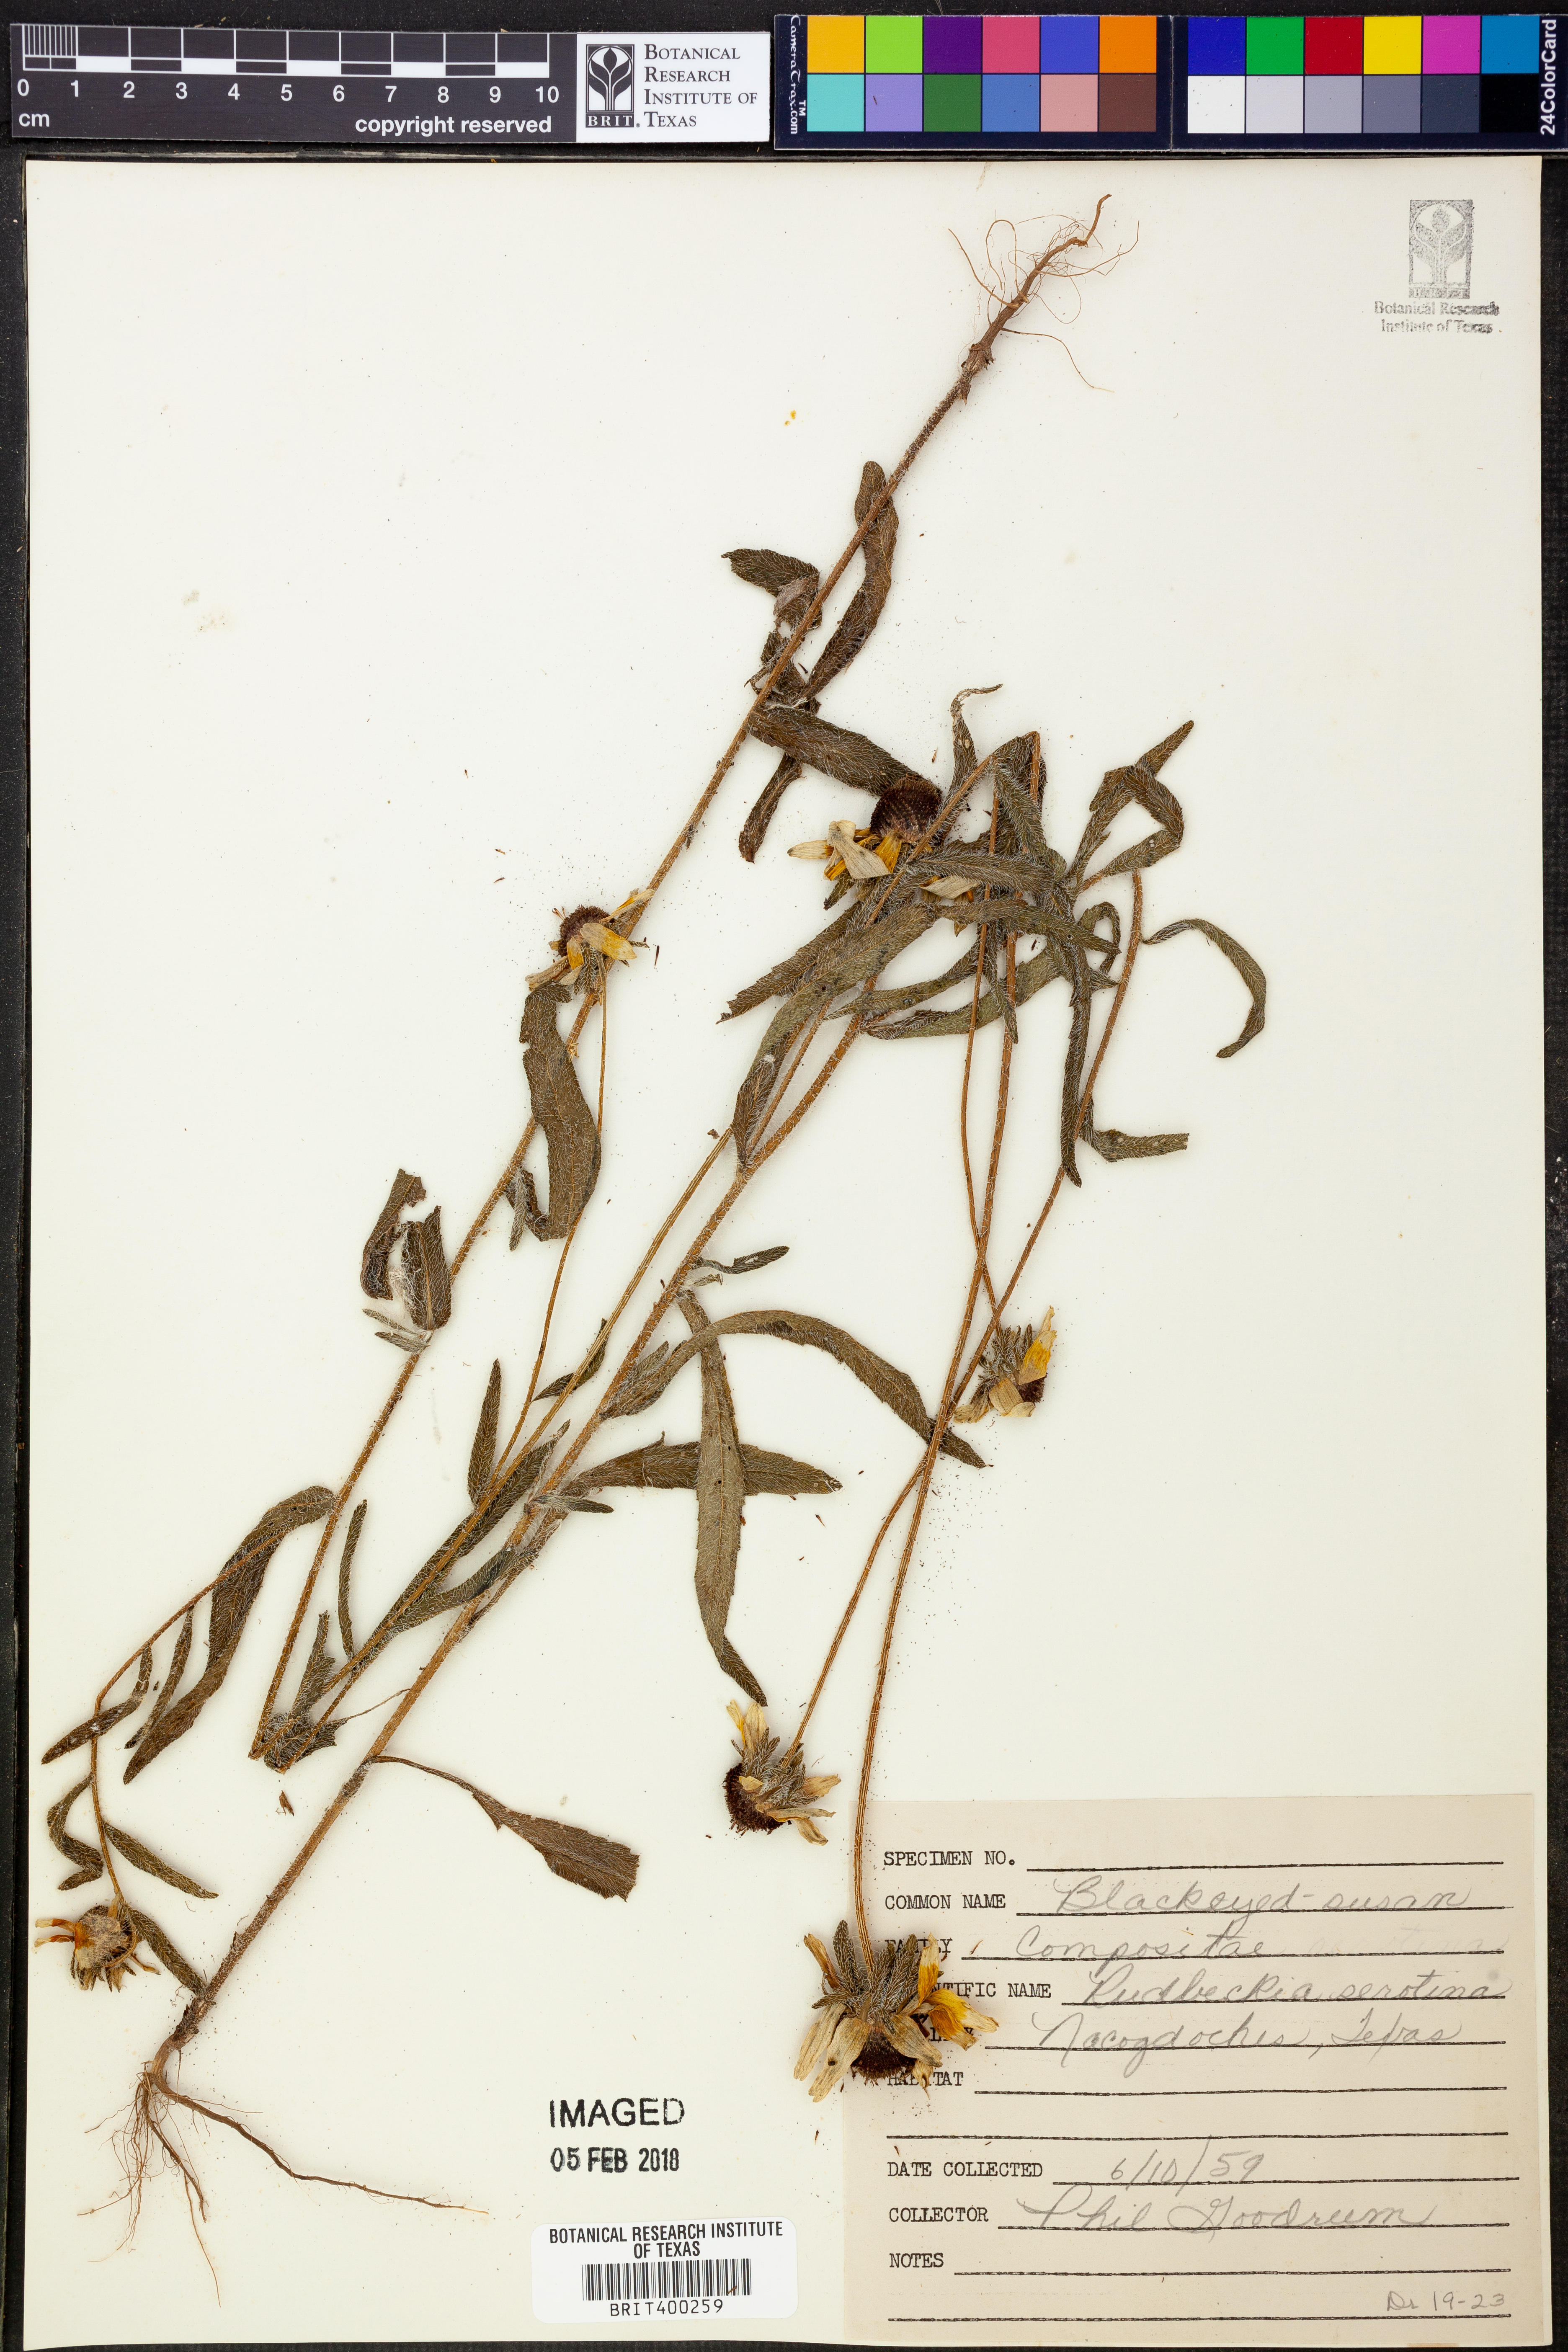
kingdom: Plantae
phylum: Tracheophyta
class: Magnoliopsida
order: Asterales
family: Asteraceae
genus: Echinacea
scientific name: Echinacea purpurea
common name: Broad-leaved purple coneflower
